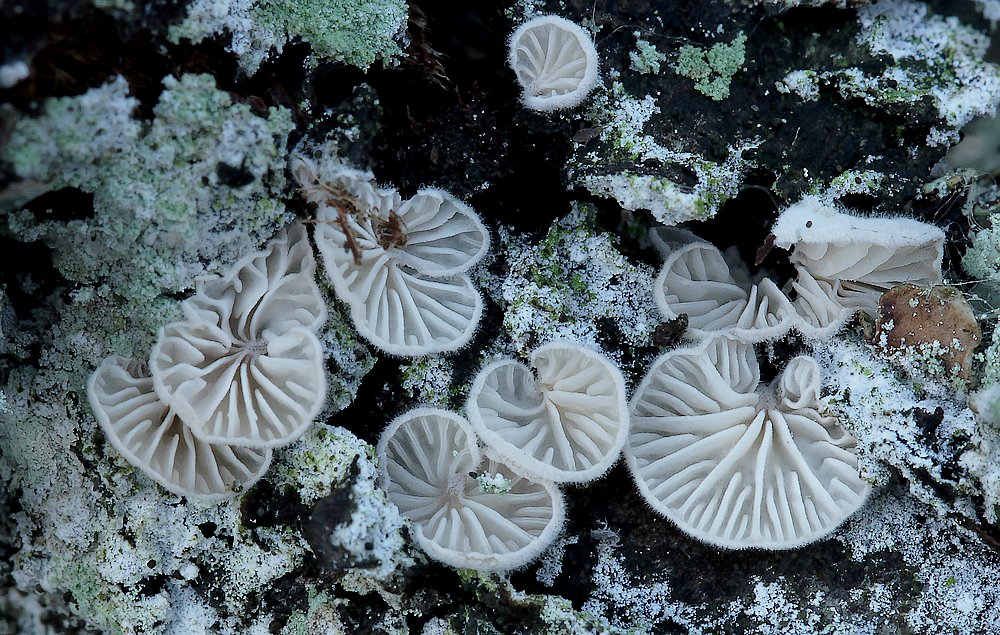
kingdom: Fungi
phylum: Basidiomycota
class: Agaricomycetes
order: Agaricales
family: Entolomataceae
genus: Clitopilus
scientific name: Clitopilus hobsonii
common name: Miller's oysterling
